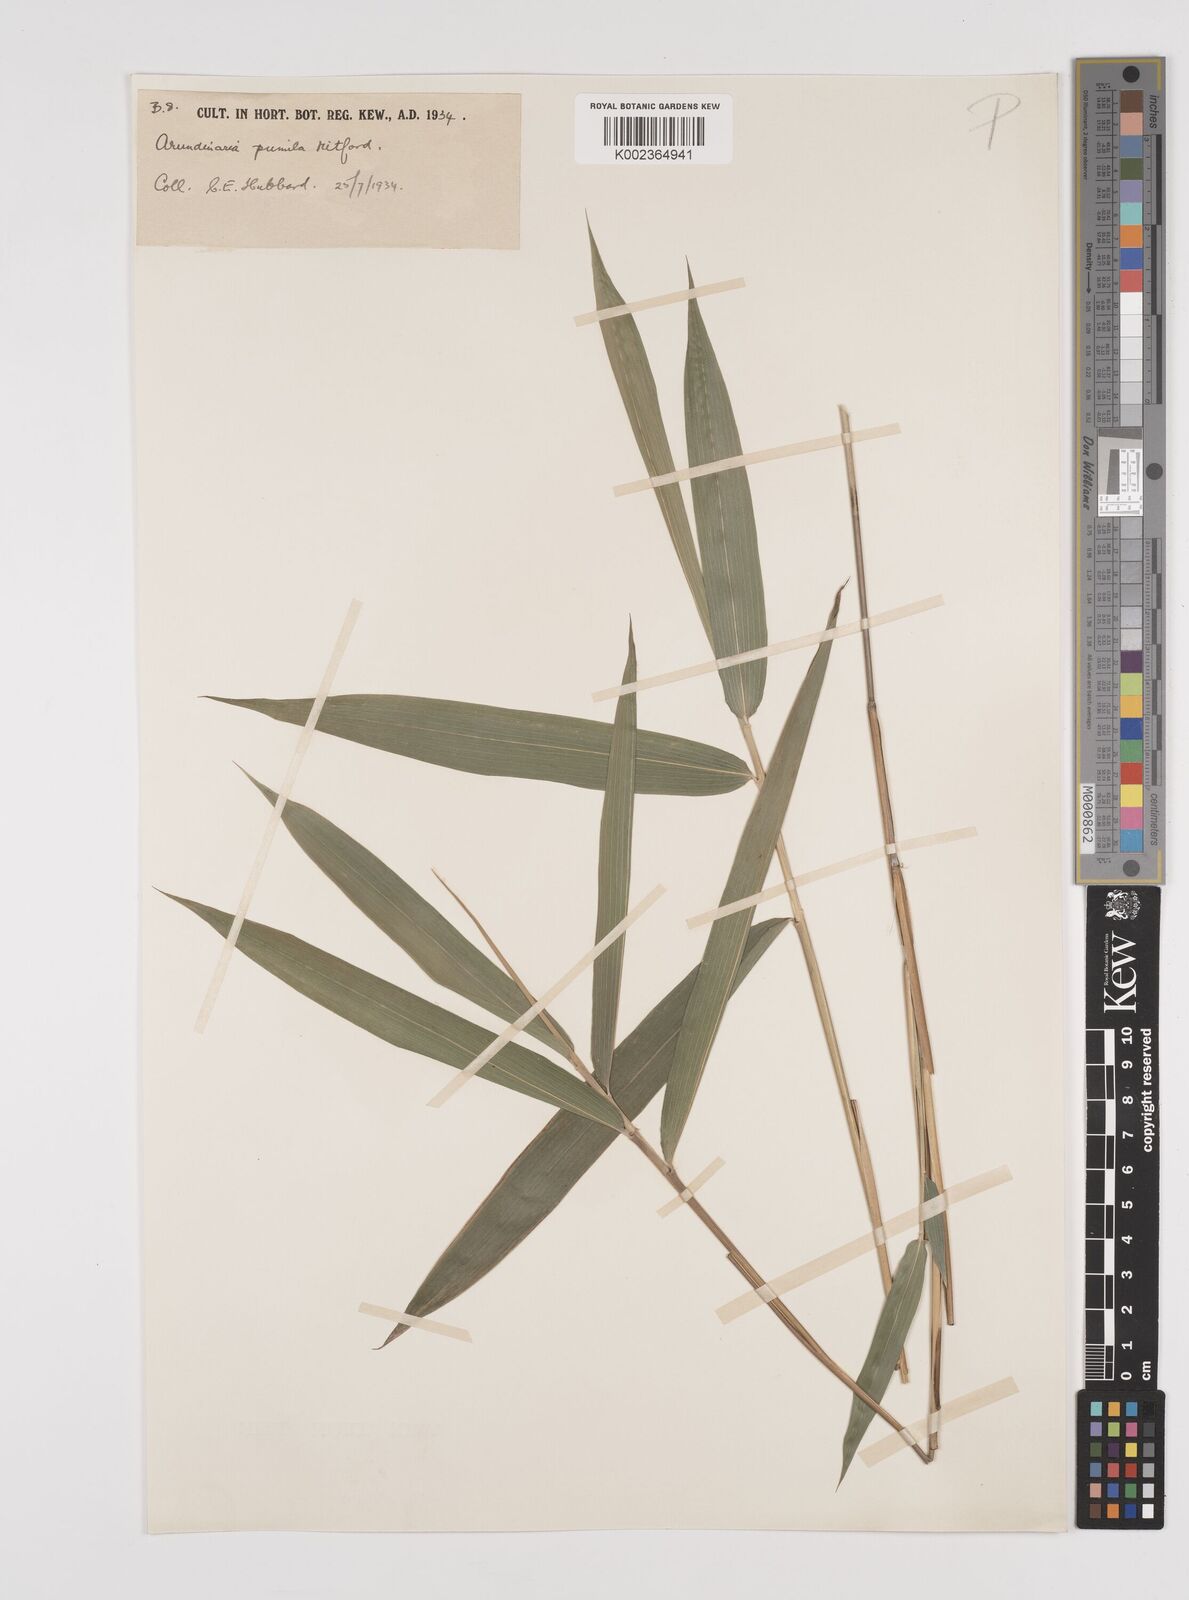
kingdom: Plantae
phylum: Tracheophyta
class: Liliopsida
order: Poales
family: Poaceae
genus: Pleioblastus
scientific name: Pleioblastus argenteostriatus
